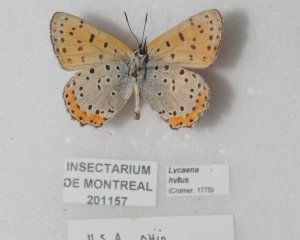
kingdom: Animalia
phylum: Arthropoda
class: Insecta
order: Lepidoptera
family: Sesiidae
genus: Sesia
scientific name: Sesia Lycaena hyllus
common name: Bronze Copper
